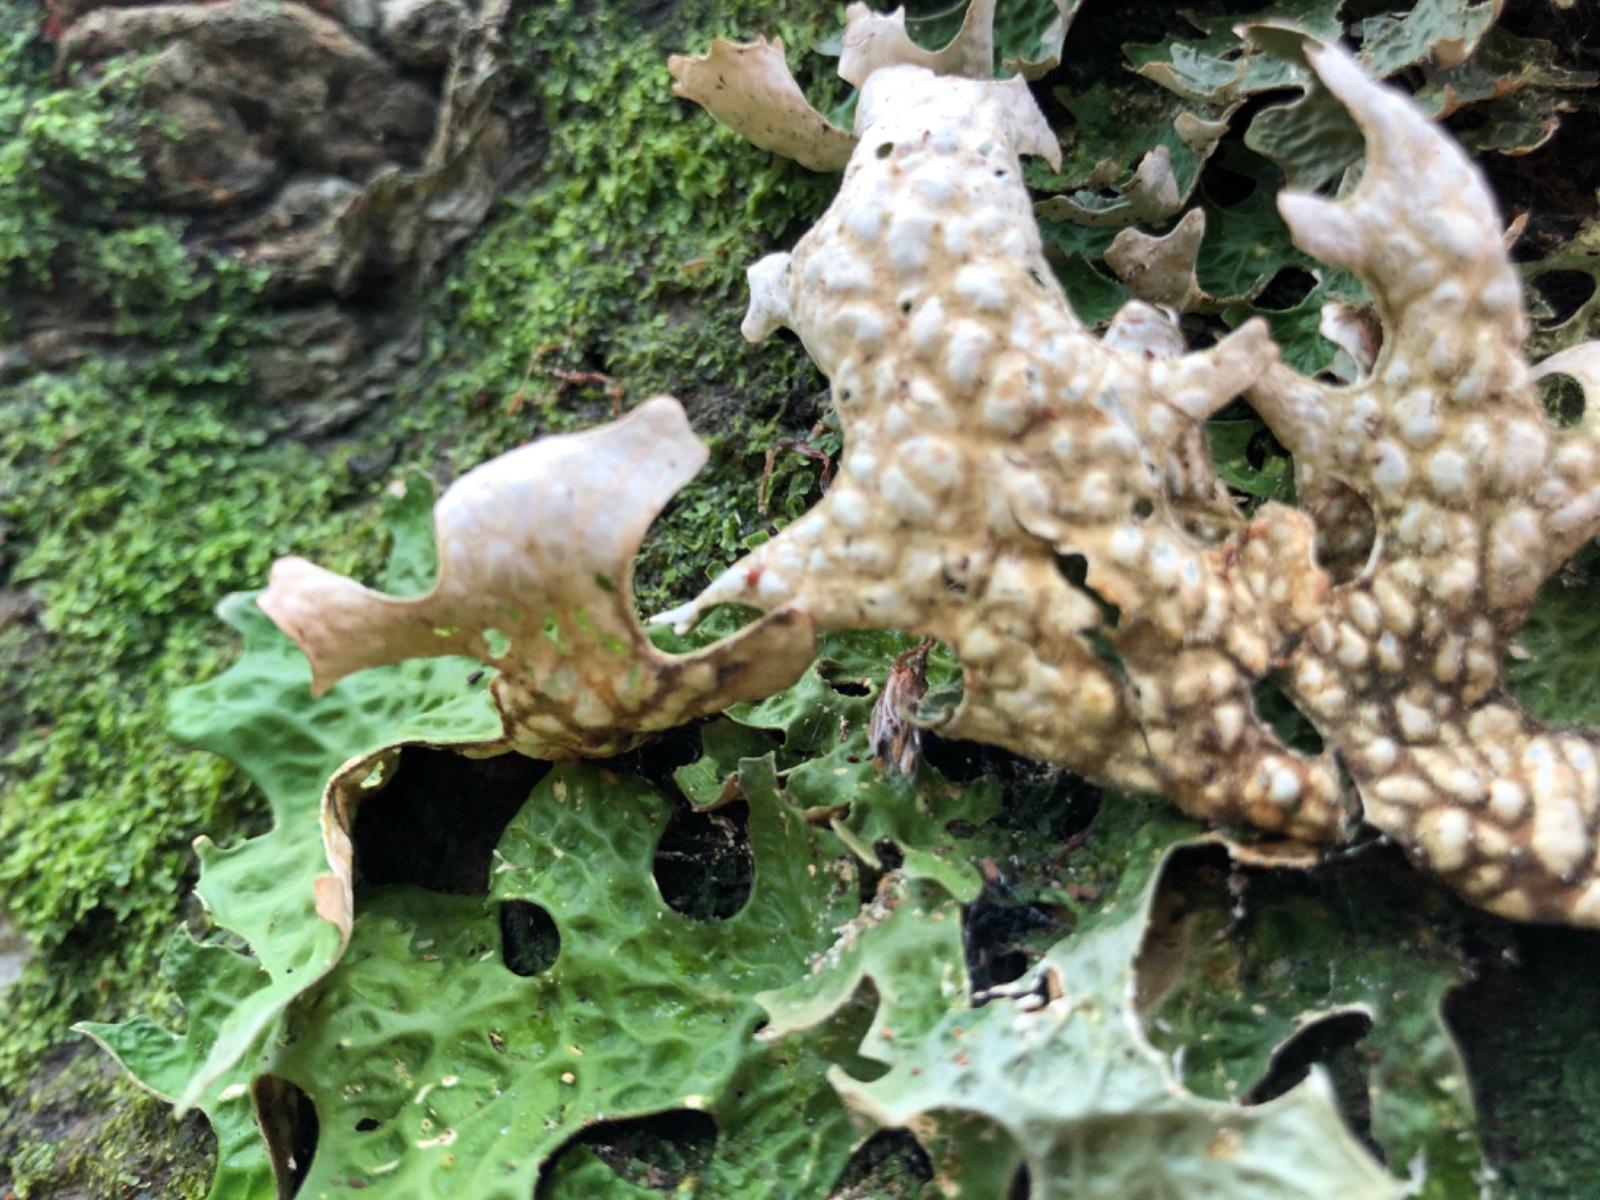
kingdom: Fungi
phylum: Ascomycota
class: Lecanoromycetes
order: Peltigerales
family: Lobariaceae
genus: Lobaria
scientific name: Lobaria pulmonaria
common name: almindelig lungelav
